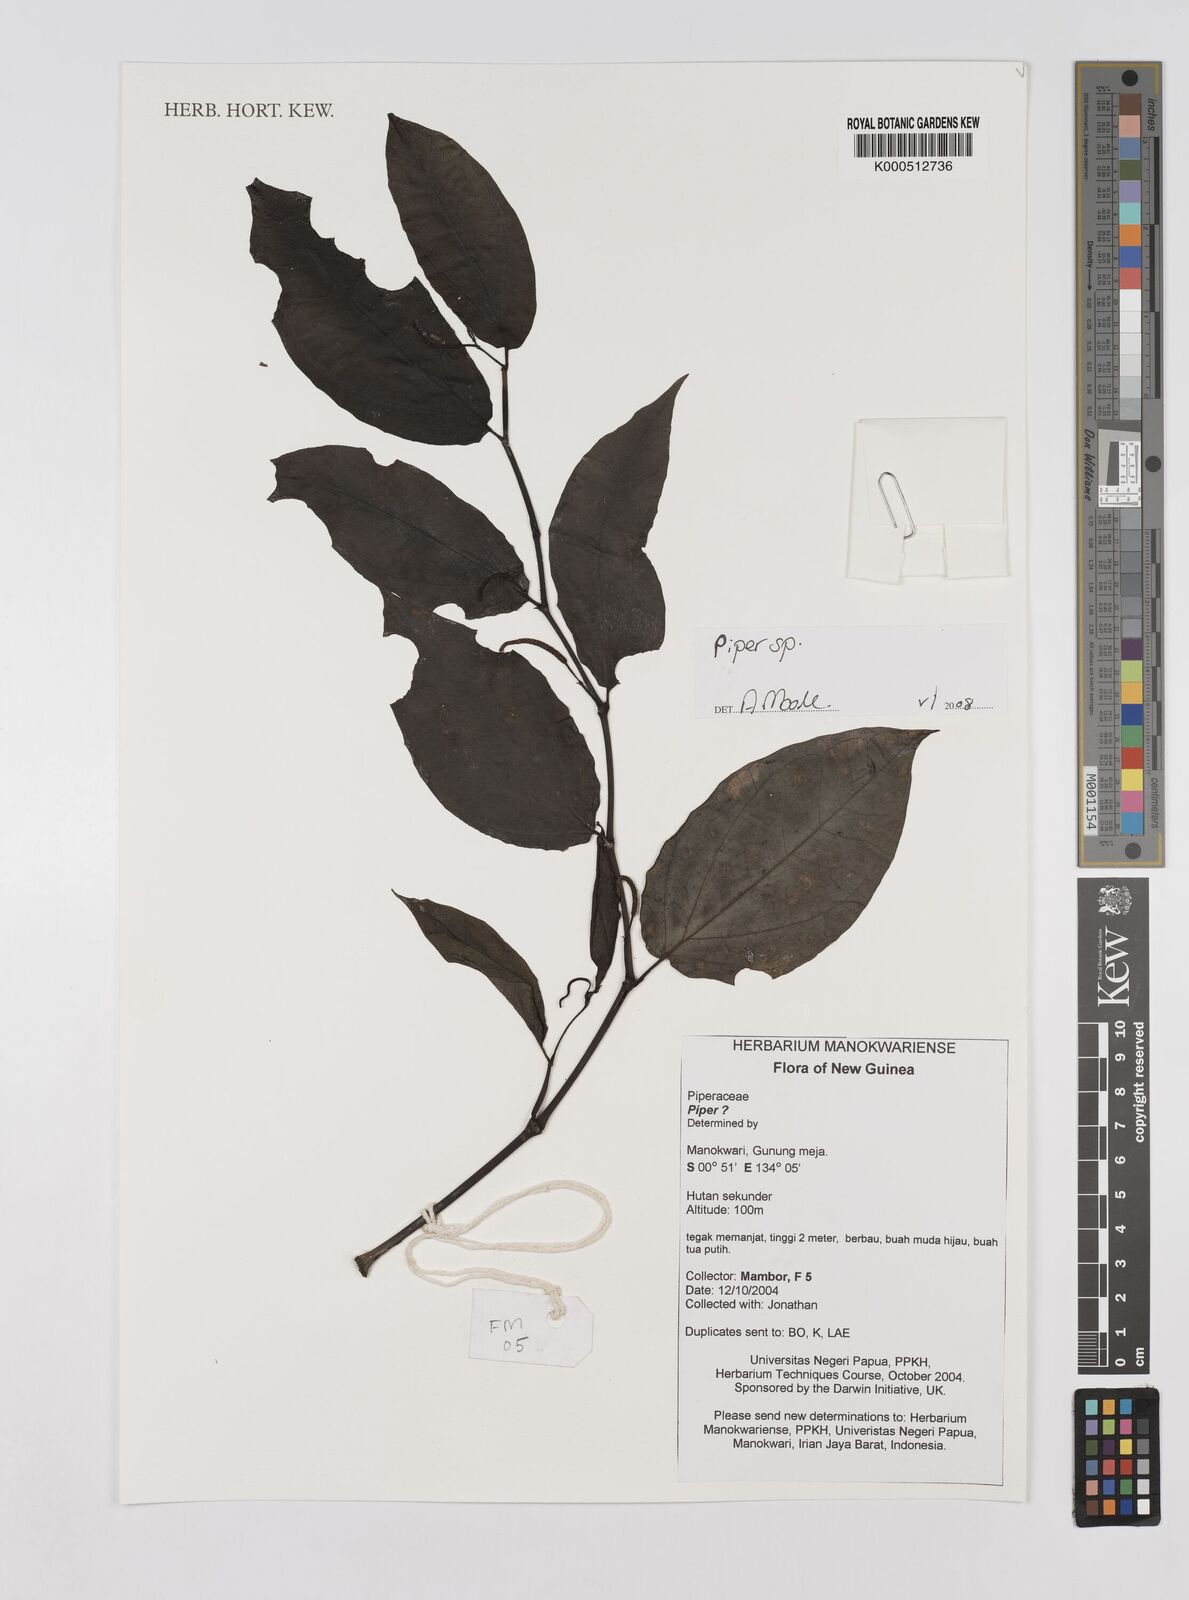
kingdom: Plantae
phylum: Tracheophyta
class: Magnoliopsida
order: Piperales
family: Piperaceae
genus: Piper
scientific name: Piper
